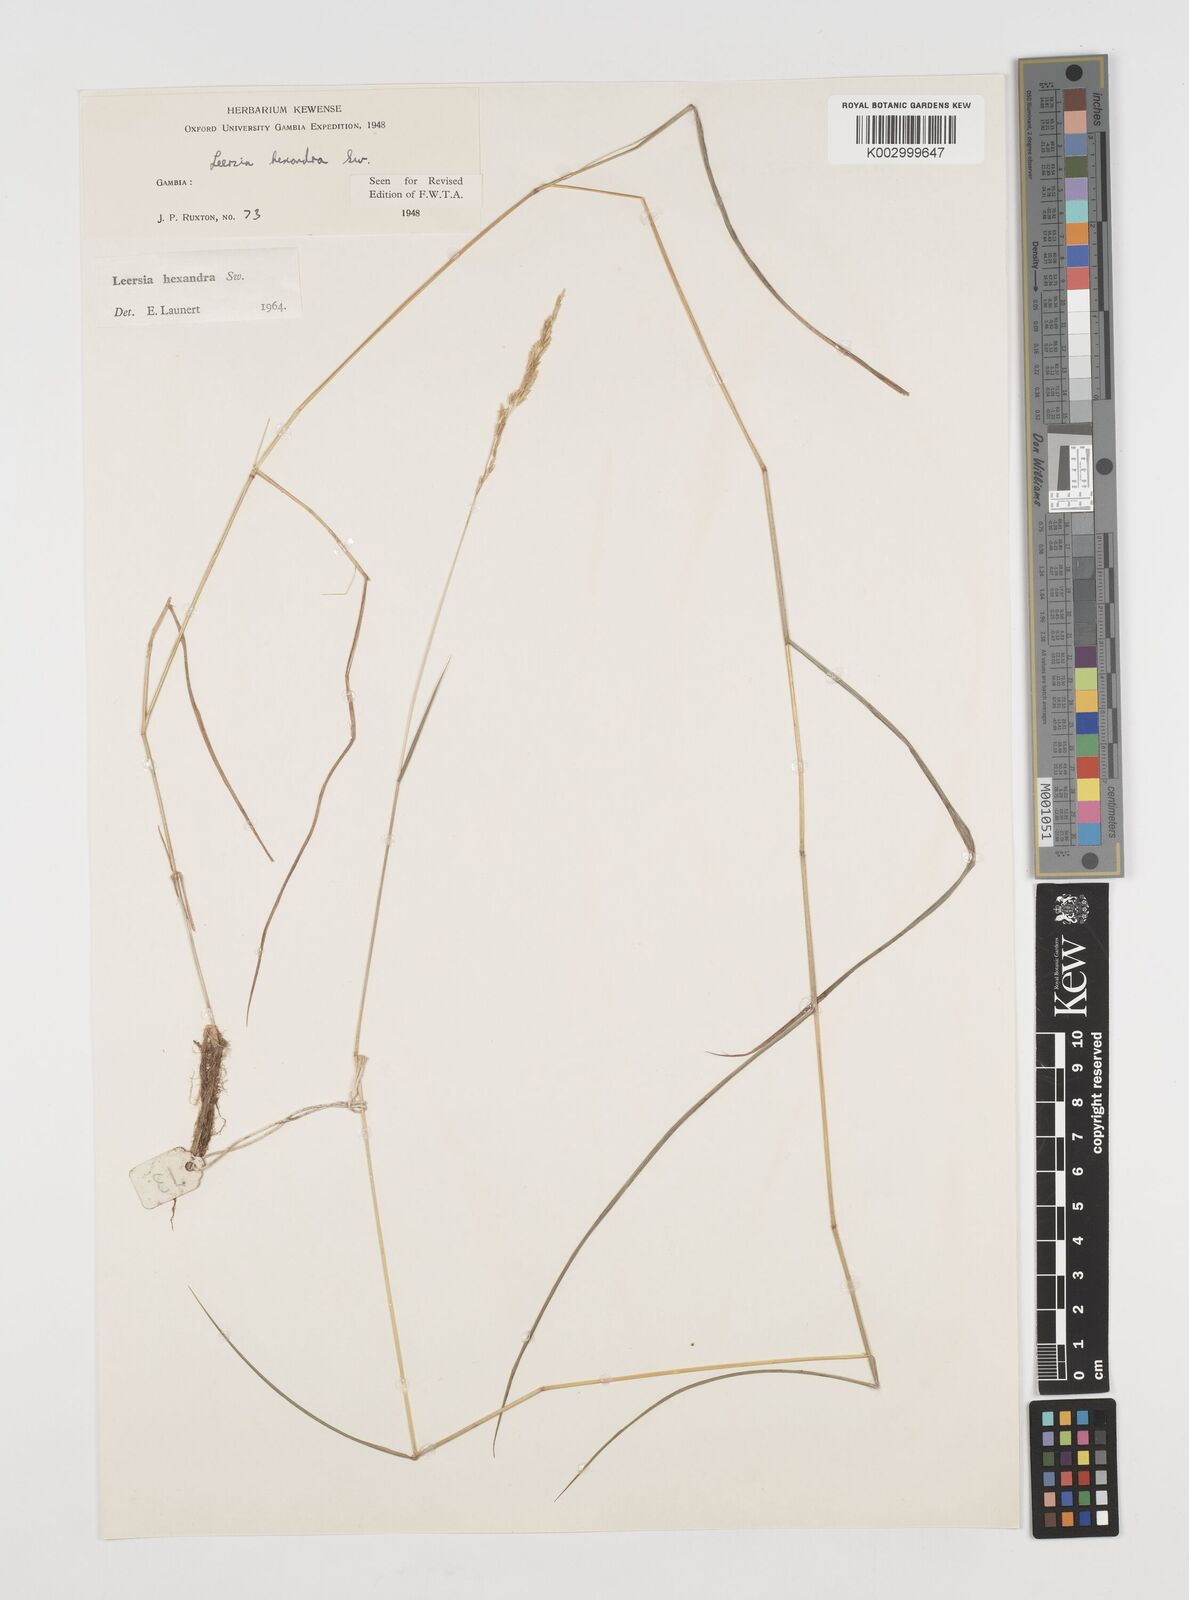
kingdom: Plantae
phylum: Tracheophyta
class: Liliopsida
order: Poales
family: Poaceae
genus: Leersia
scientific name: Leersia hexandra
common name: Southern cut grass
